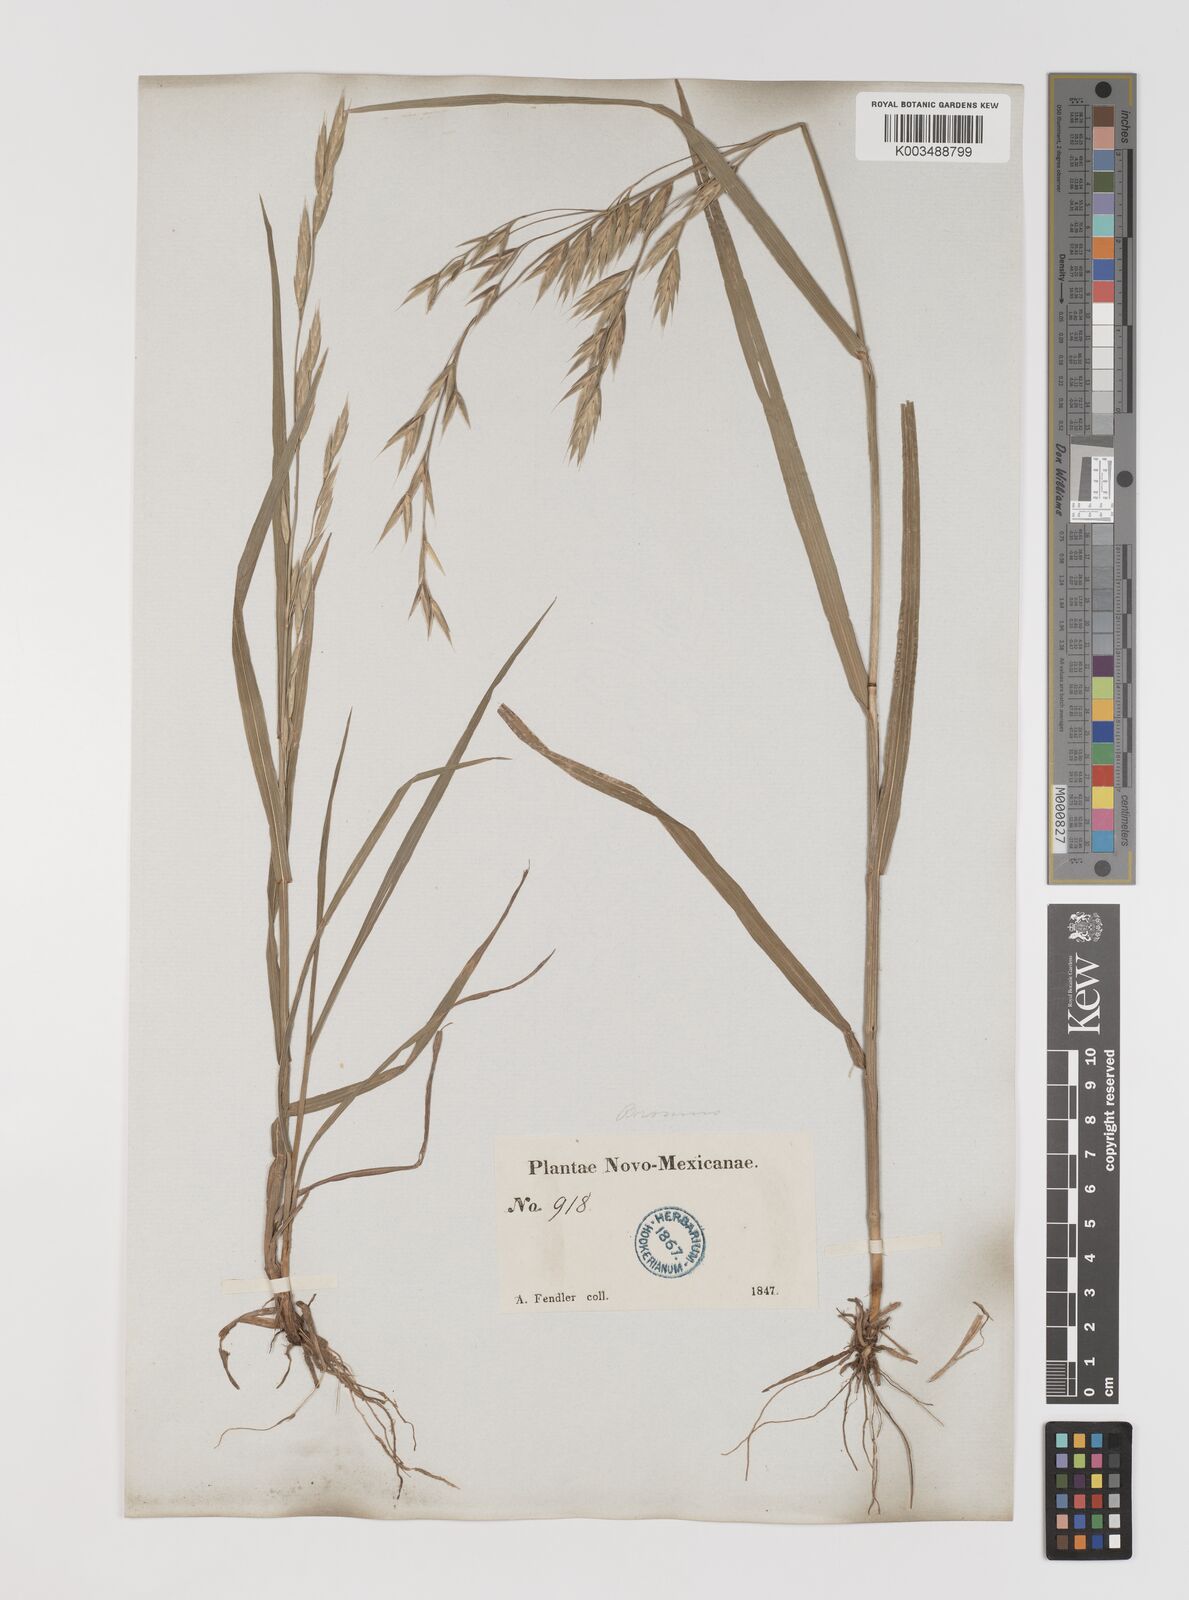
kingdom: Plantae
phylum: Tracheophyta
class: Liliopsida
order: Poales
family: Poaceae
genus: Bromus
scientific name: Bromus
